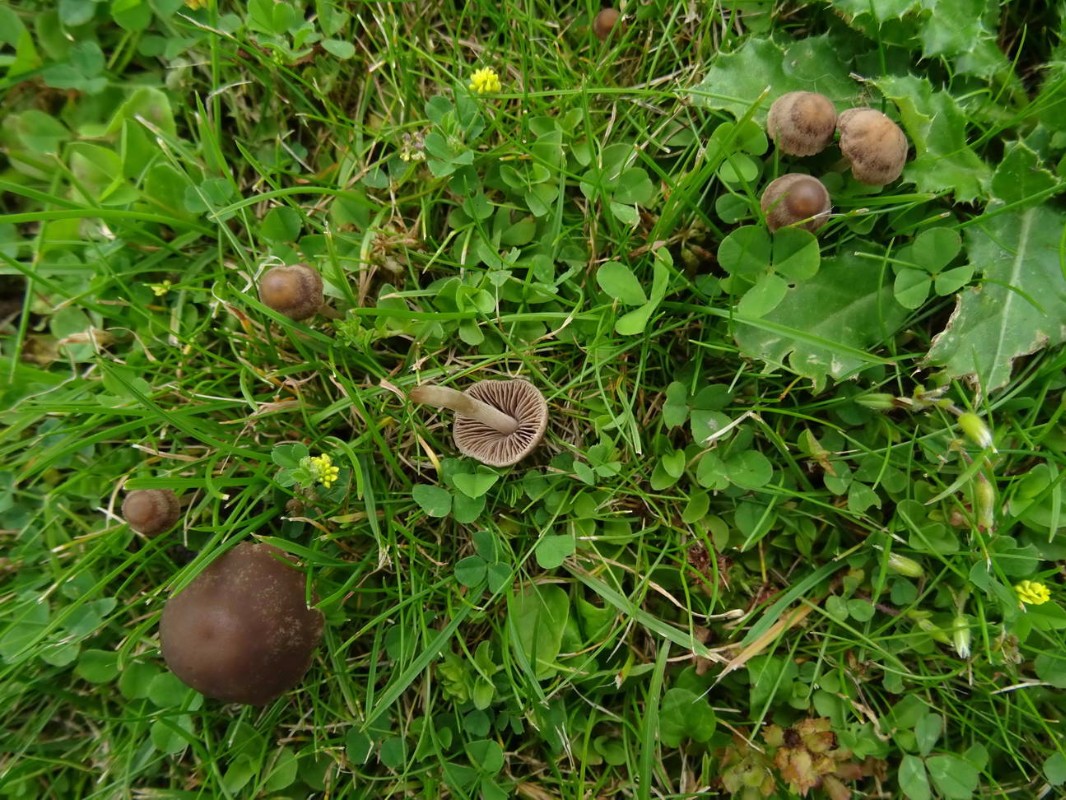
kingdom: Fungi
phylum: Basidiomycota
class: Agaricomycetes
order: Agaricales
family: Bolbitiaceae
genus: Panaeolina
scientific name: Panaeolina foenisecii
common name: høslætsvamp
